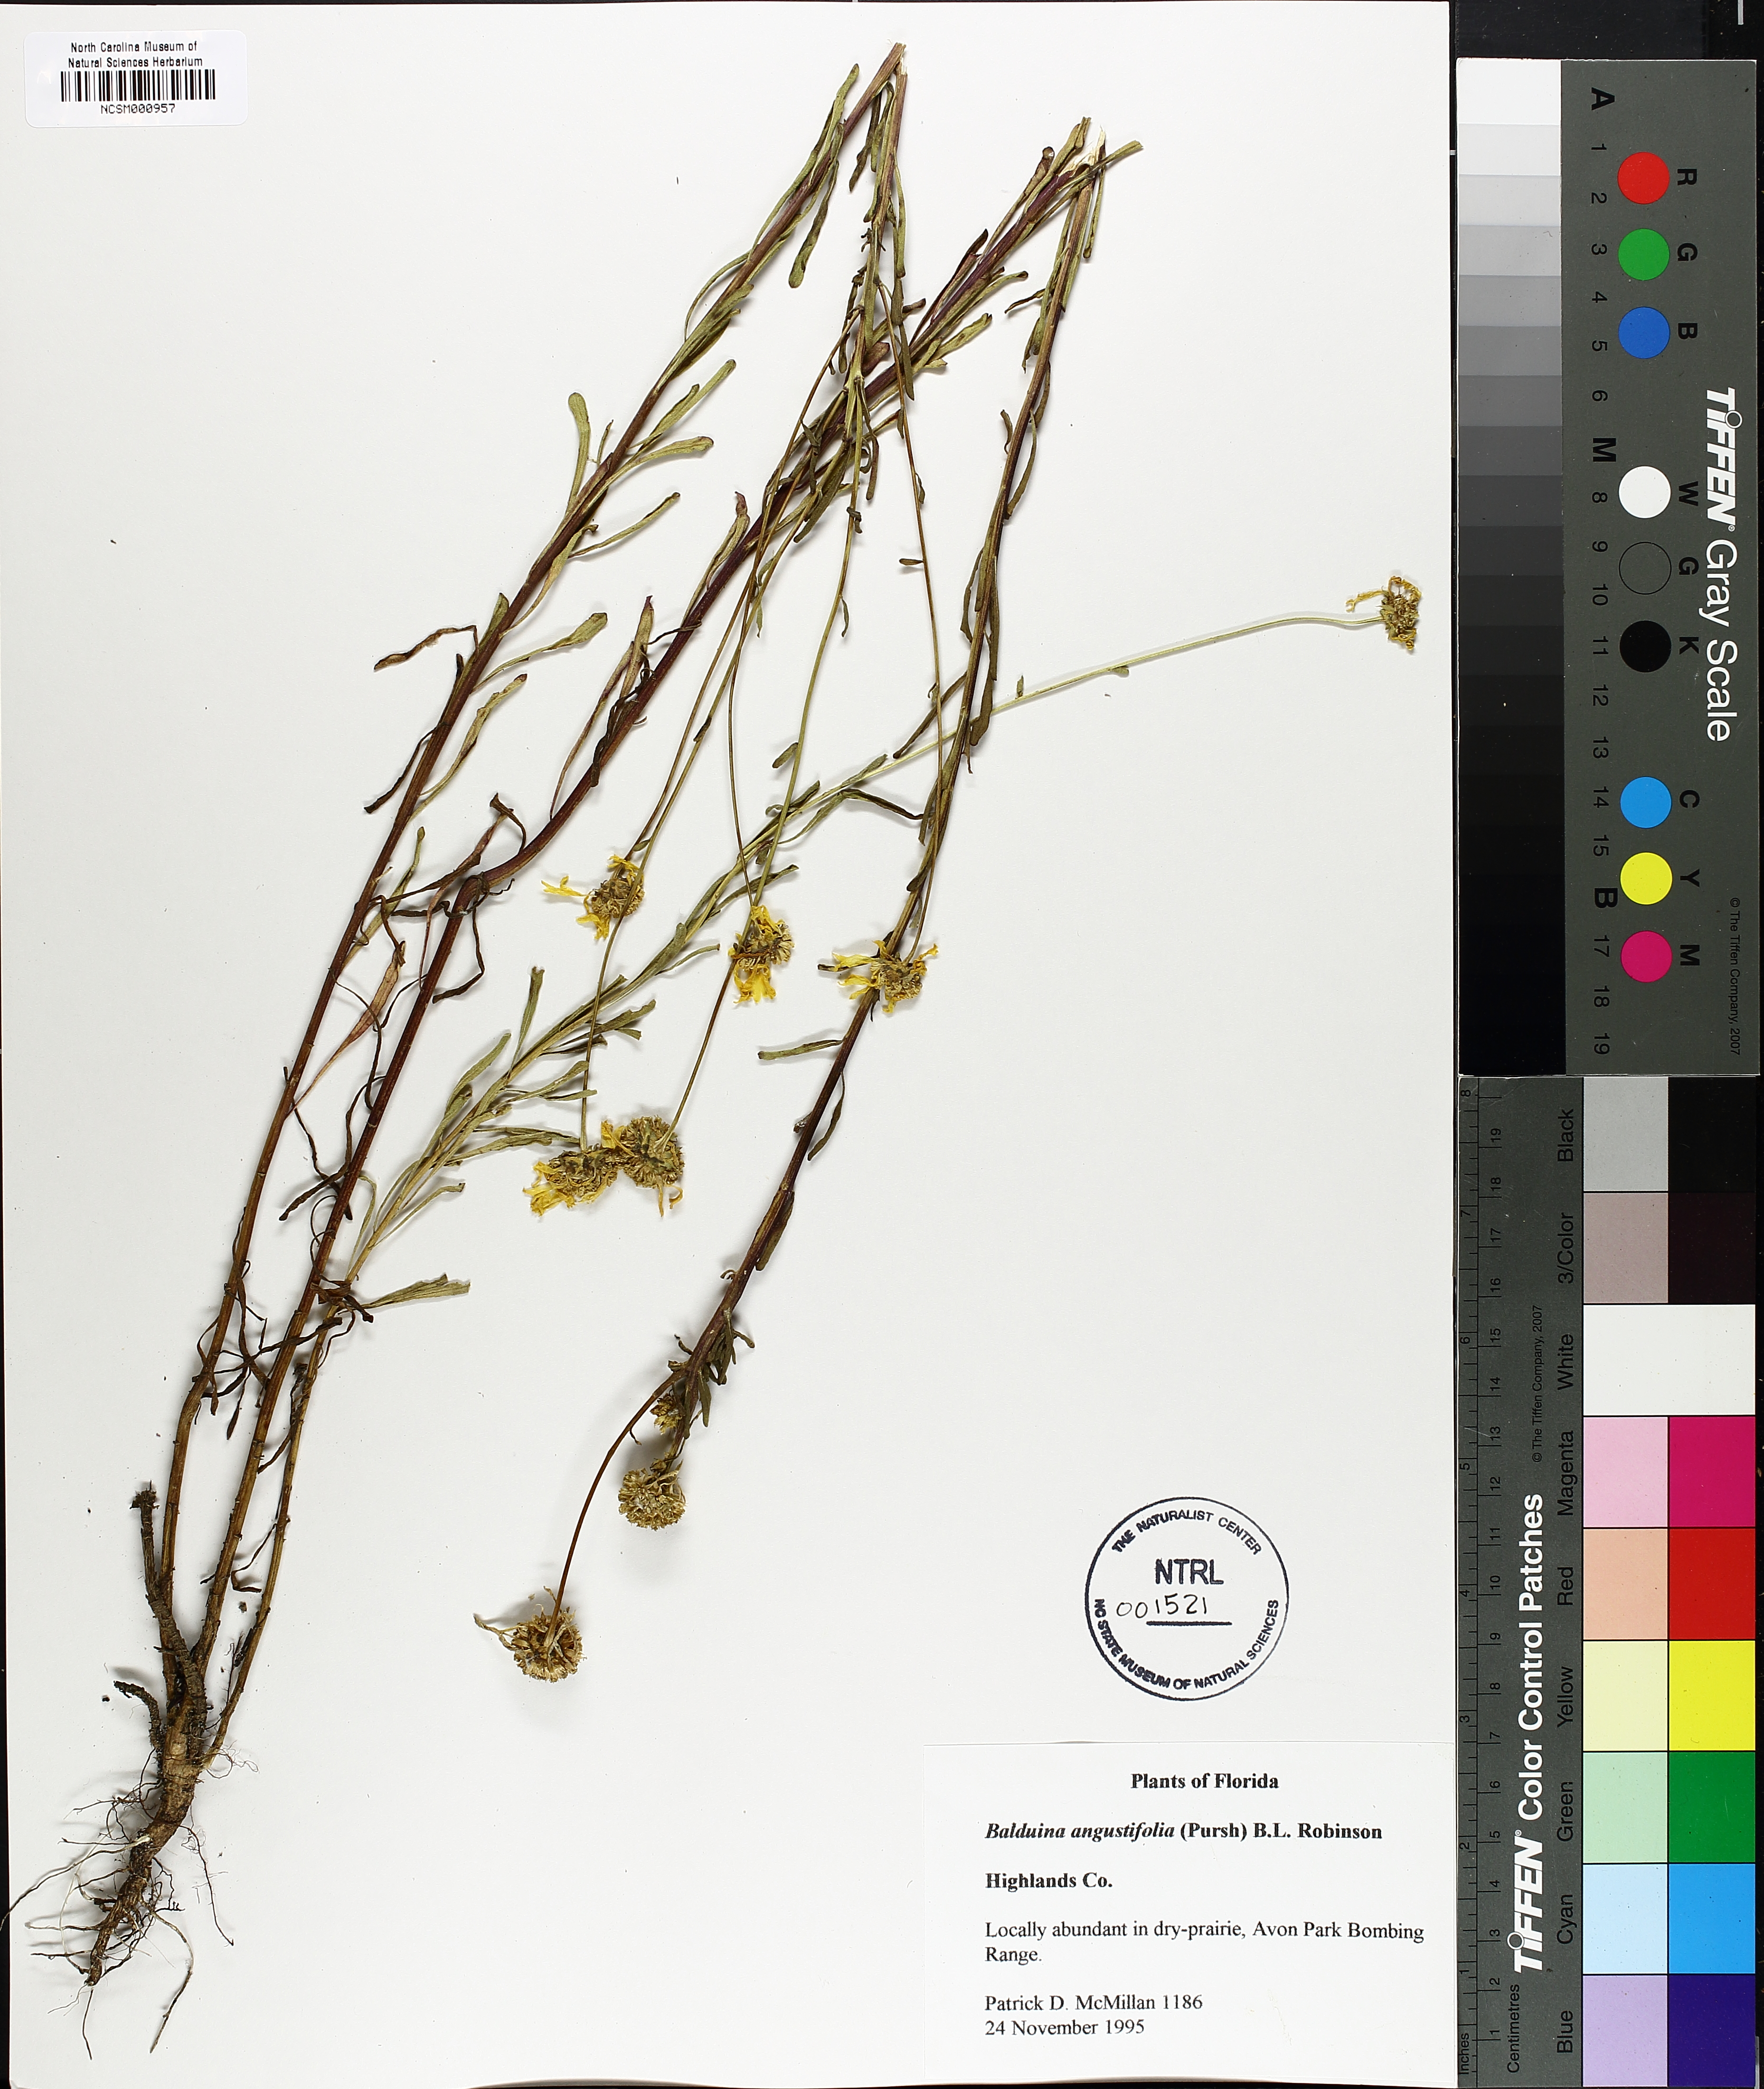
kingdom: Plantae
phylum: Tracheophyta
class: Magnoliopsida
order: Asterales
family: Asteraceae
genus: Balduina
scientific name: Balduina angustifolia
